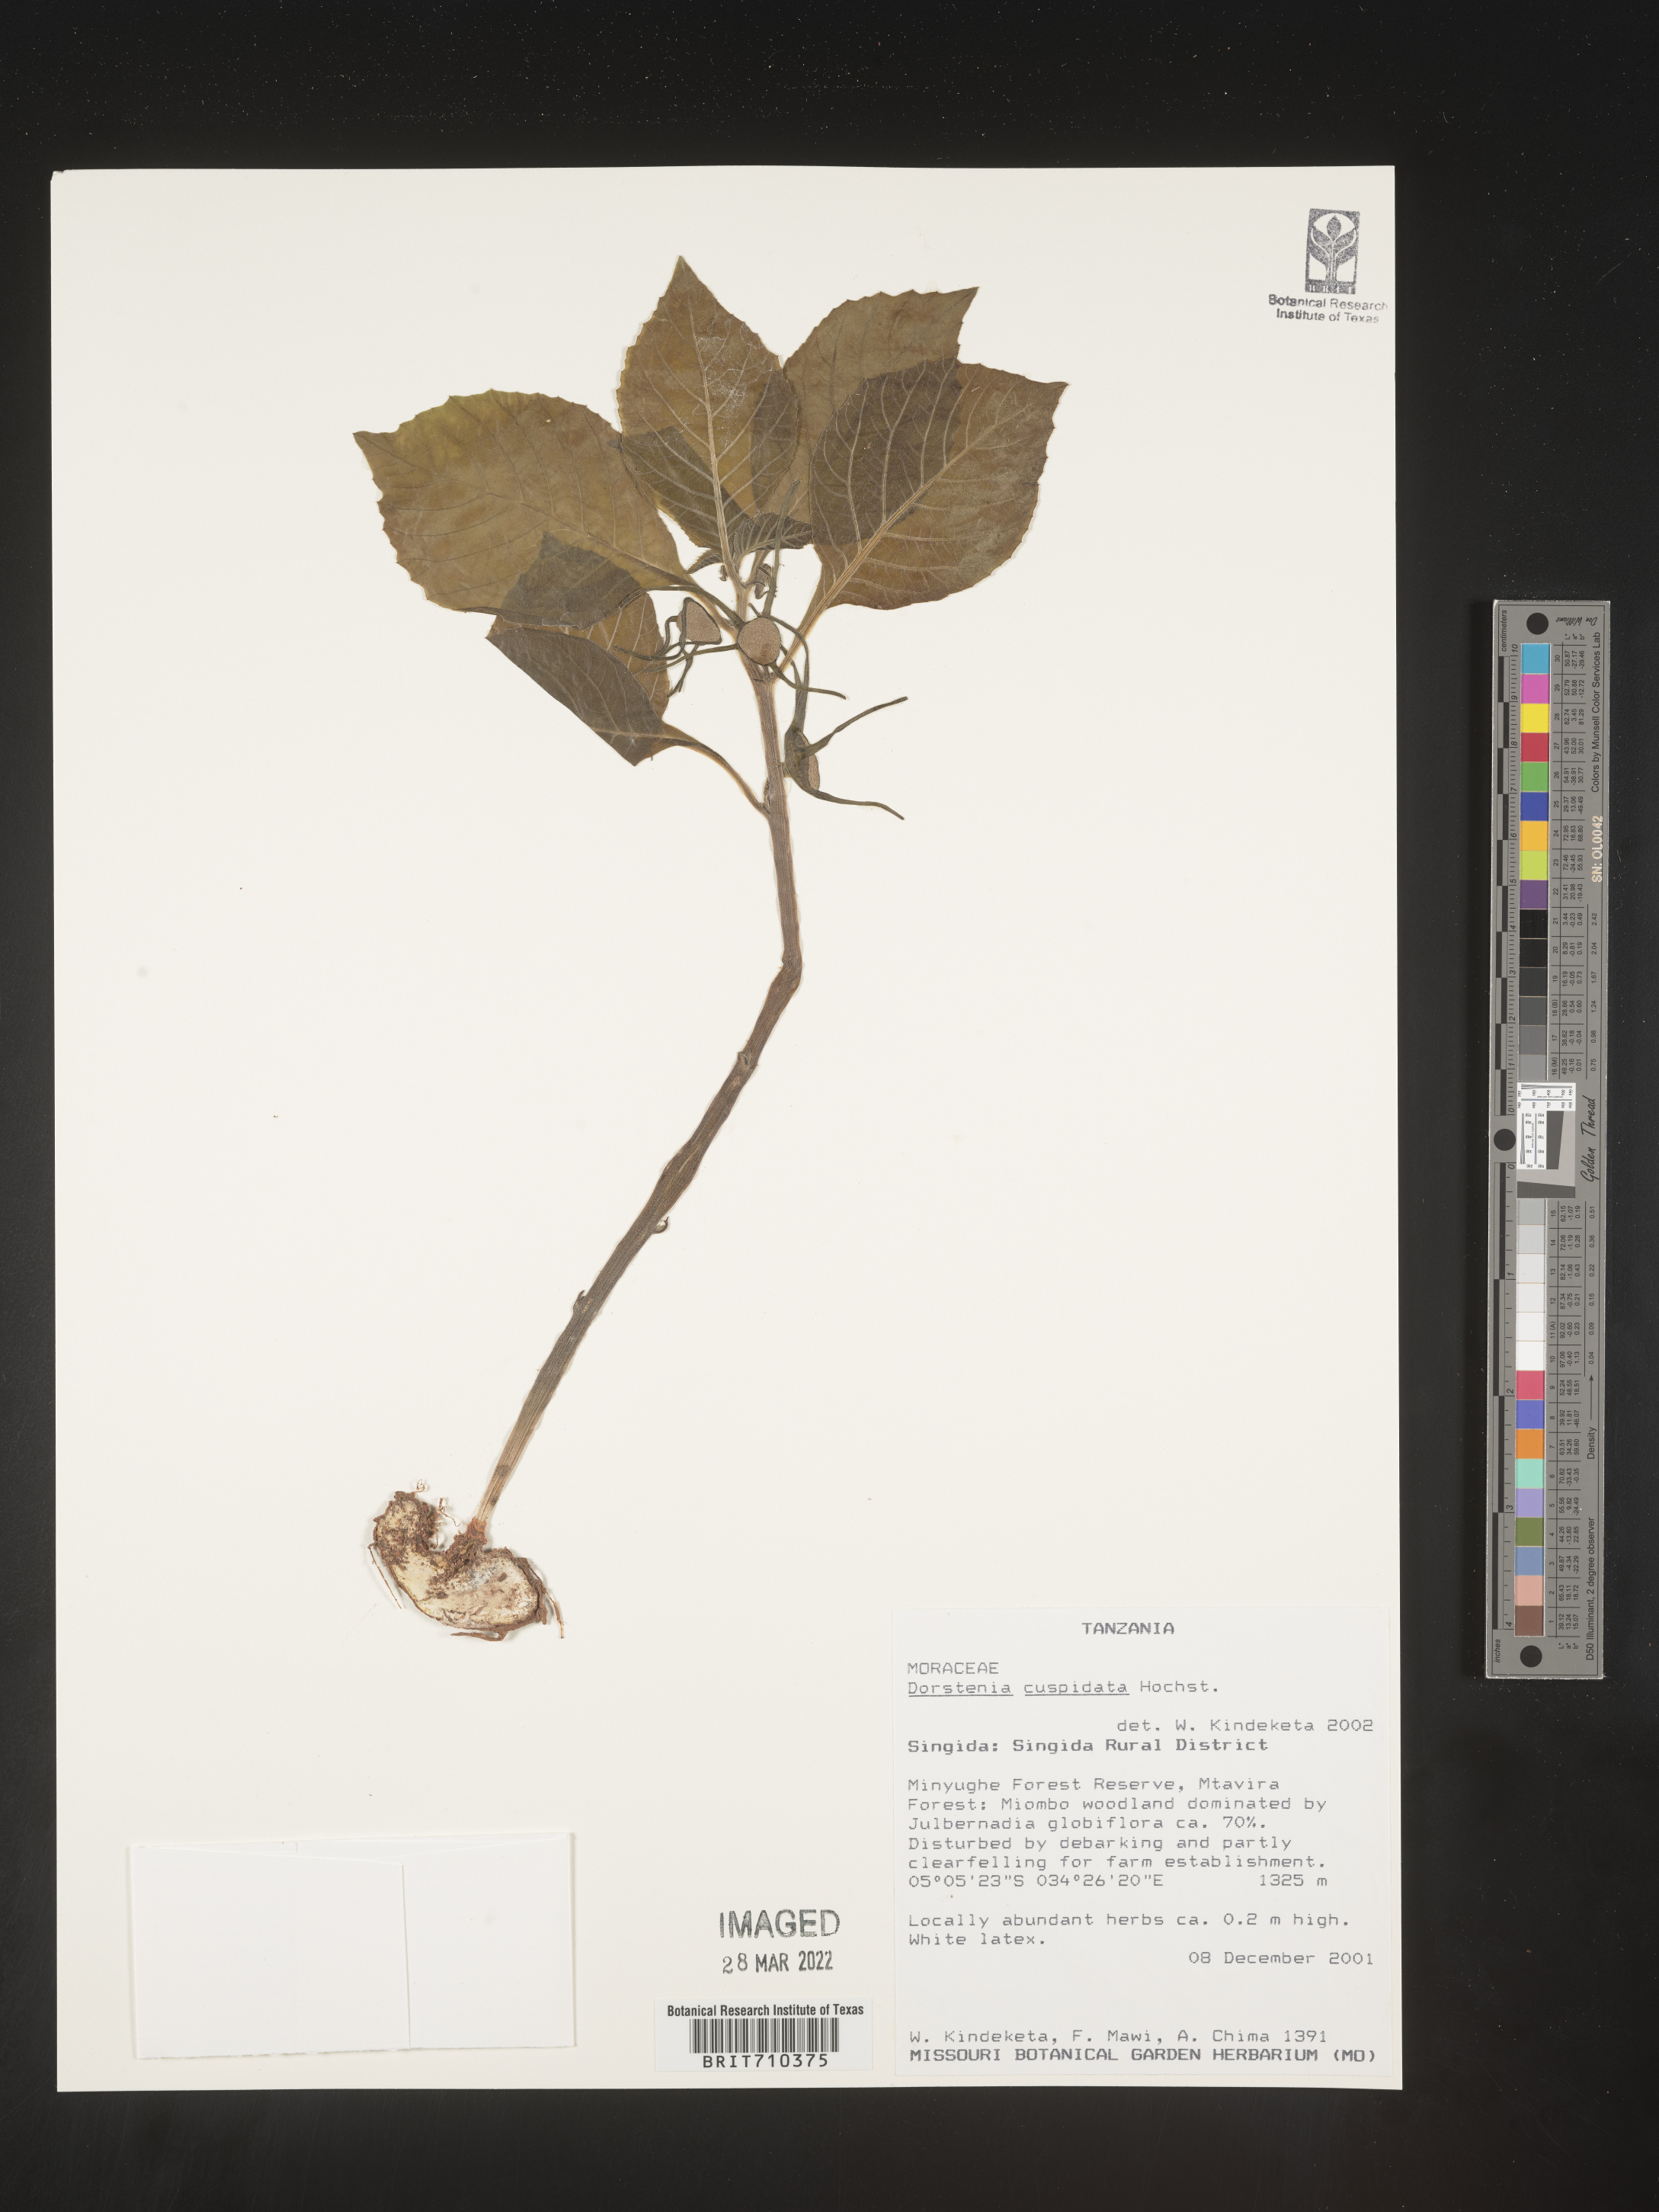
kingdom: Plantae
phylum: Tracheophyta
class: Magnoliopsida
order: Rosales
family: Moraceae
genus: Dorstenia
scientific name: Dorstenia
